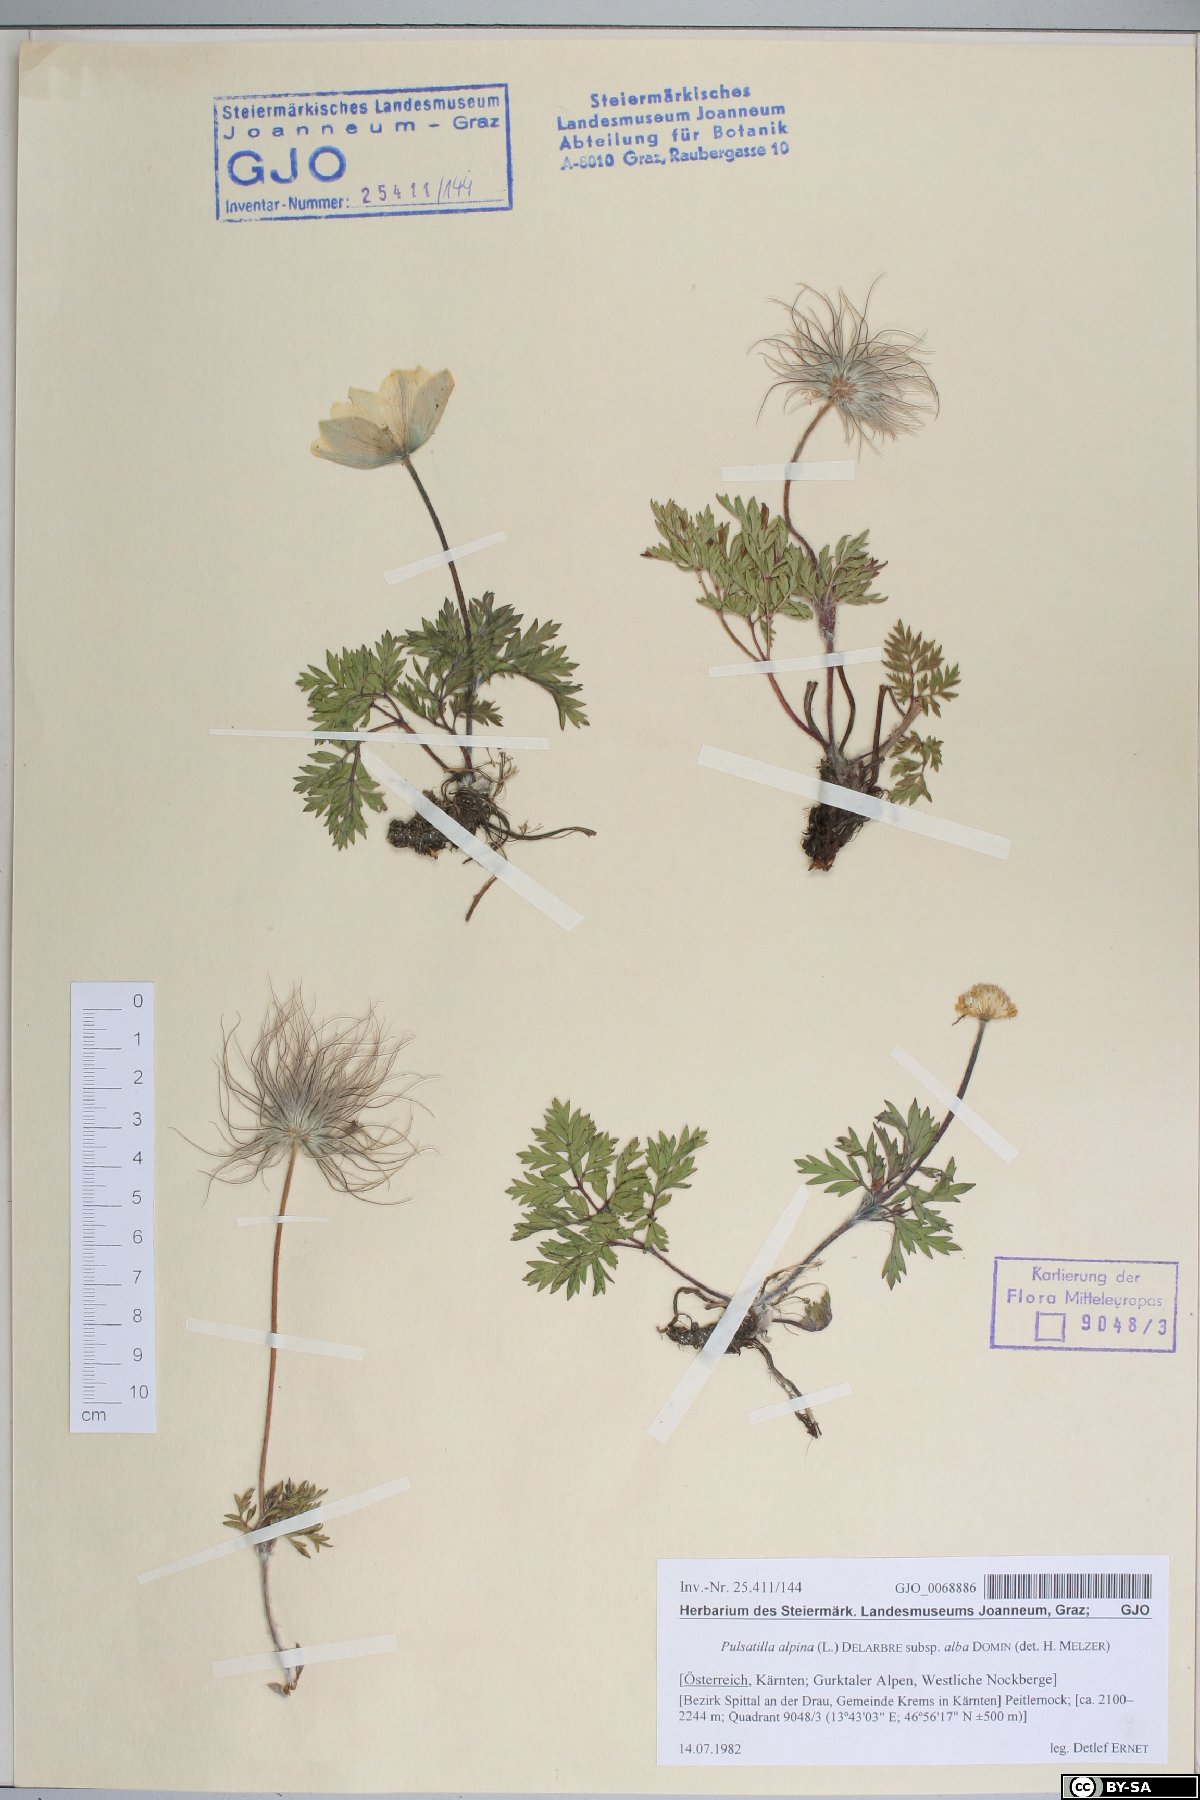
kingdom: Plantae
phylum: Tracheophyta
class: Magnoliopsida
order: Ranunculales
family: Ranunculaceae
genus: Pulsatilla
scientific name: Pulsatilla alpina
